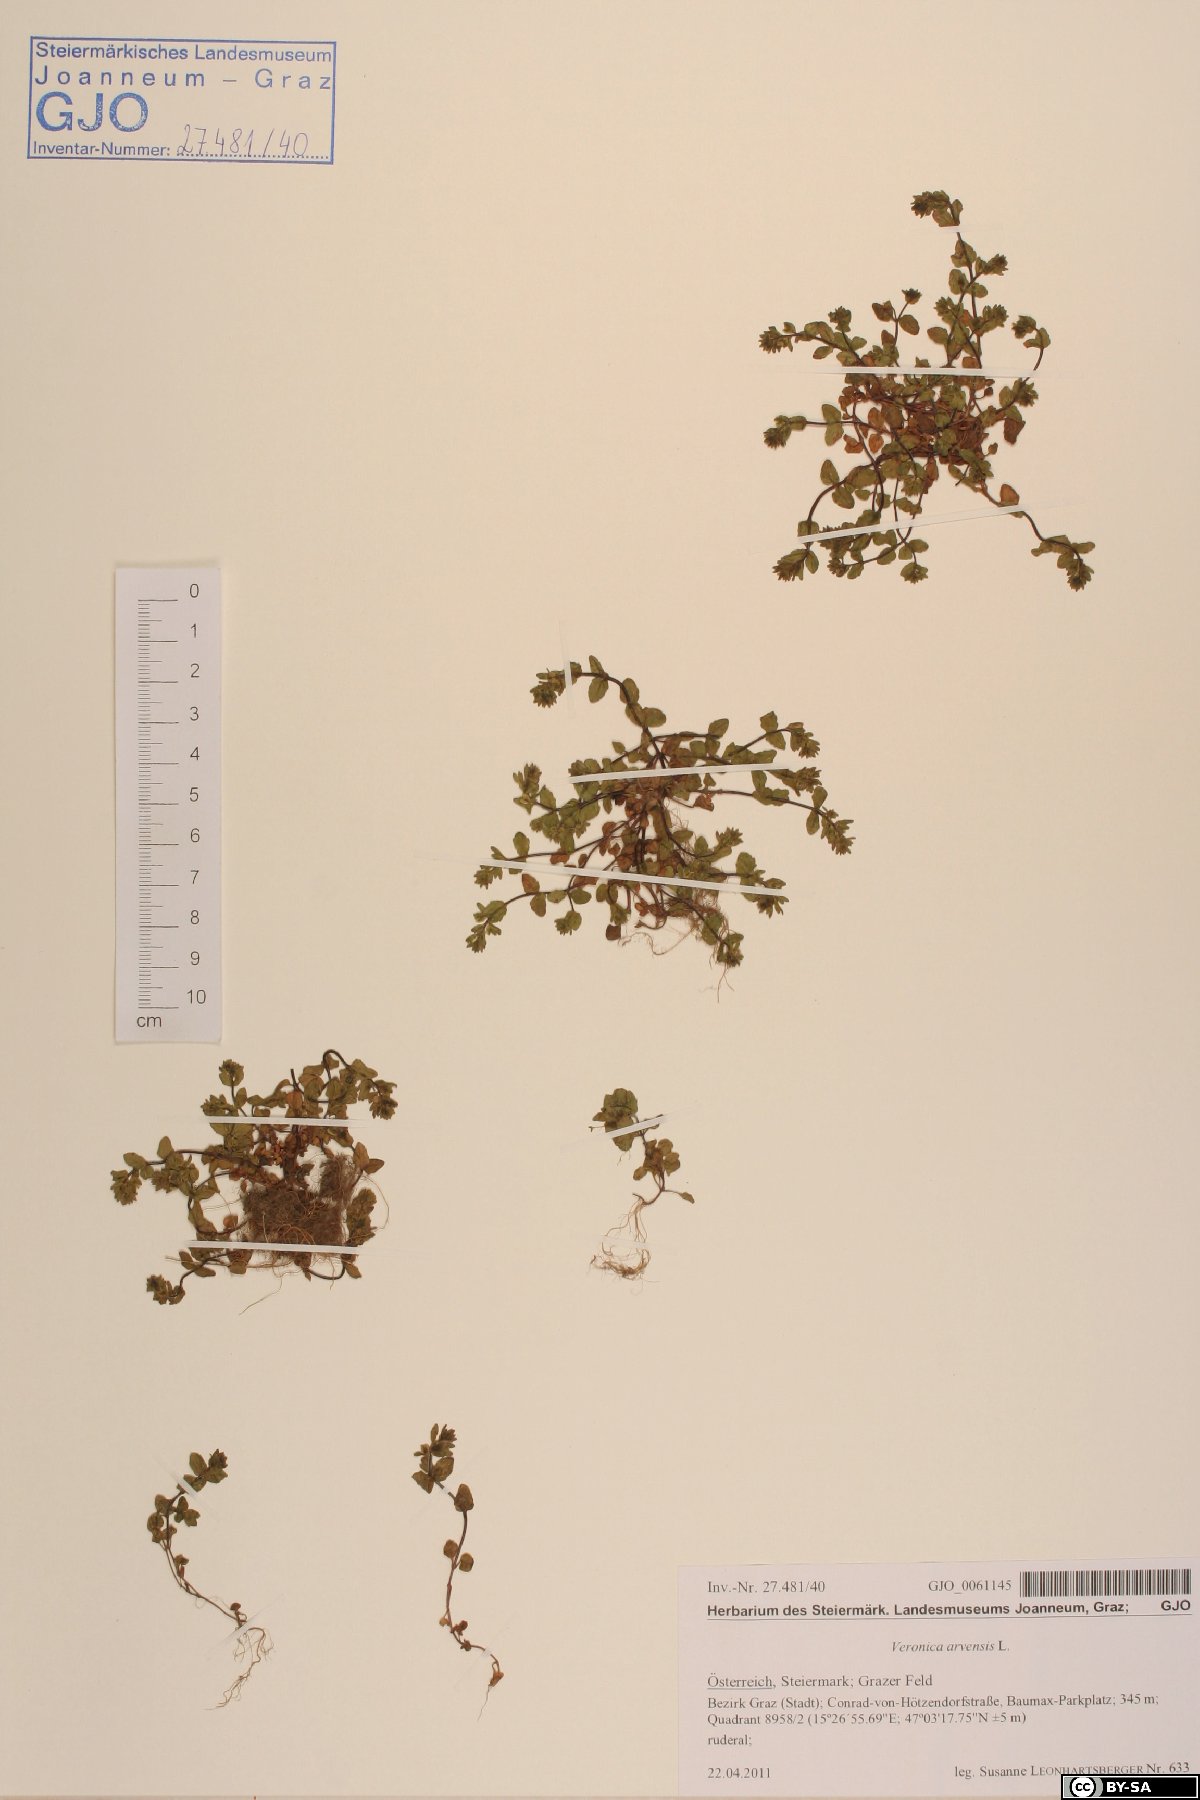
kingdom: Plantae
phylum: Tracheophyta
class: Magnoliopsida
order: Lamiales
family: Plantaginaceae
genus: Veronica
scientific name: Veronica arvensis
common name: Corn speedwell
